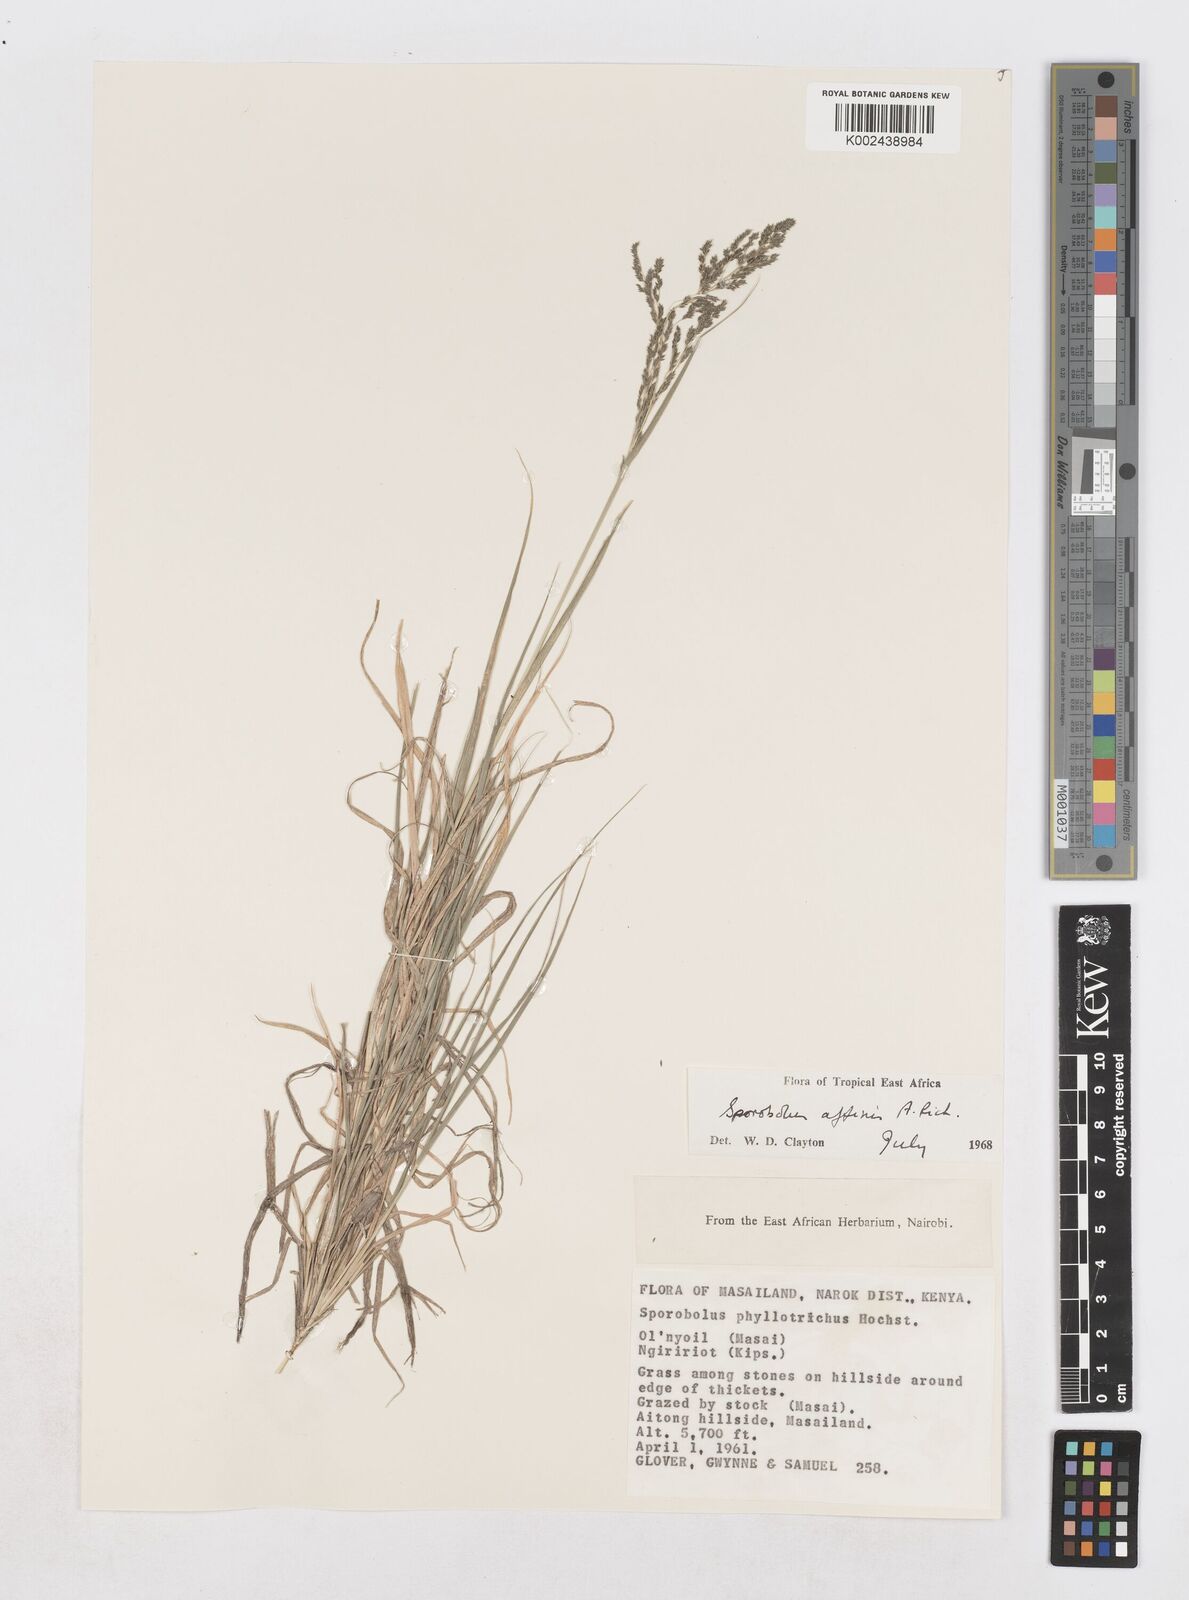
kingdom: Plantae
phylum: Tracheophyta
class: Liliopsida
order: Poales
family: Poaceae
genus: Sporobolus
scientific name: Sporobolus confinis
